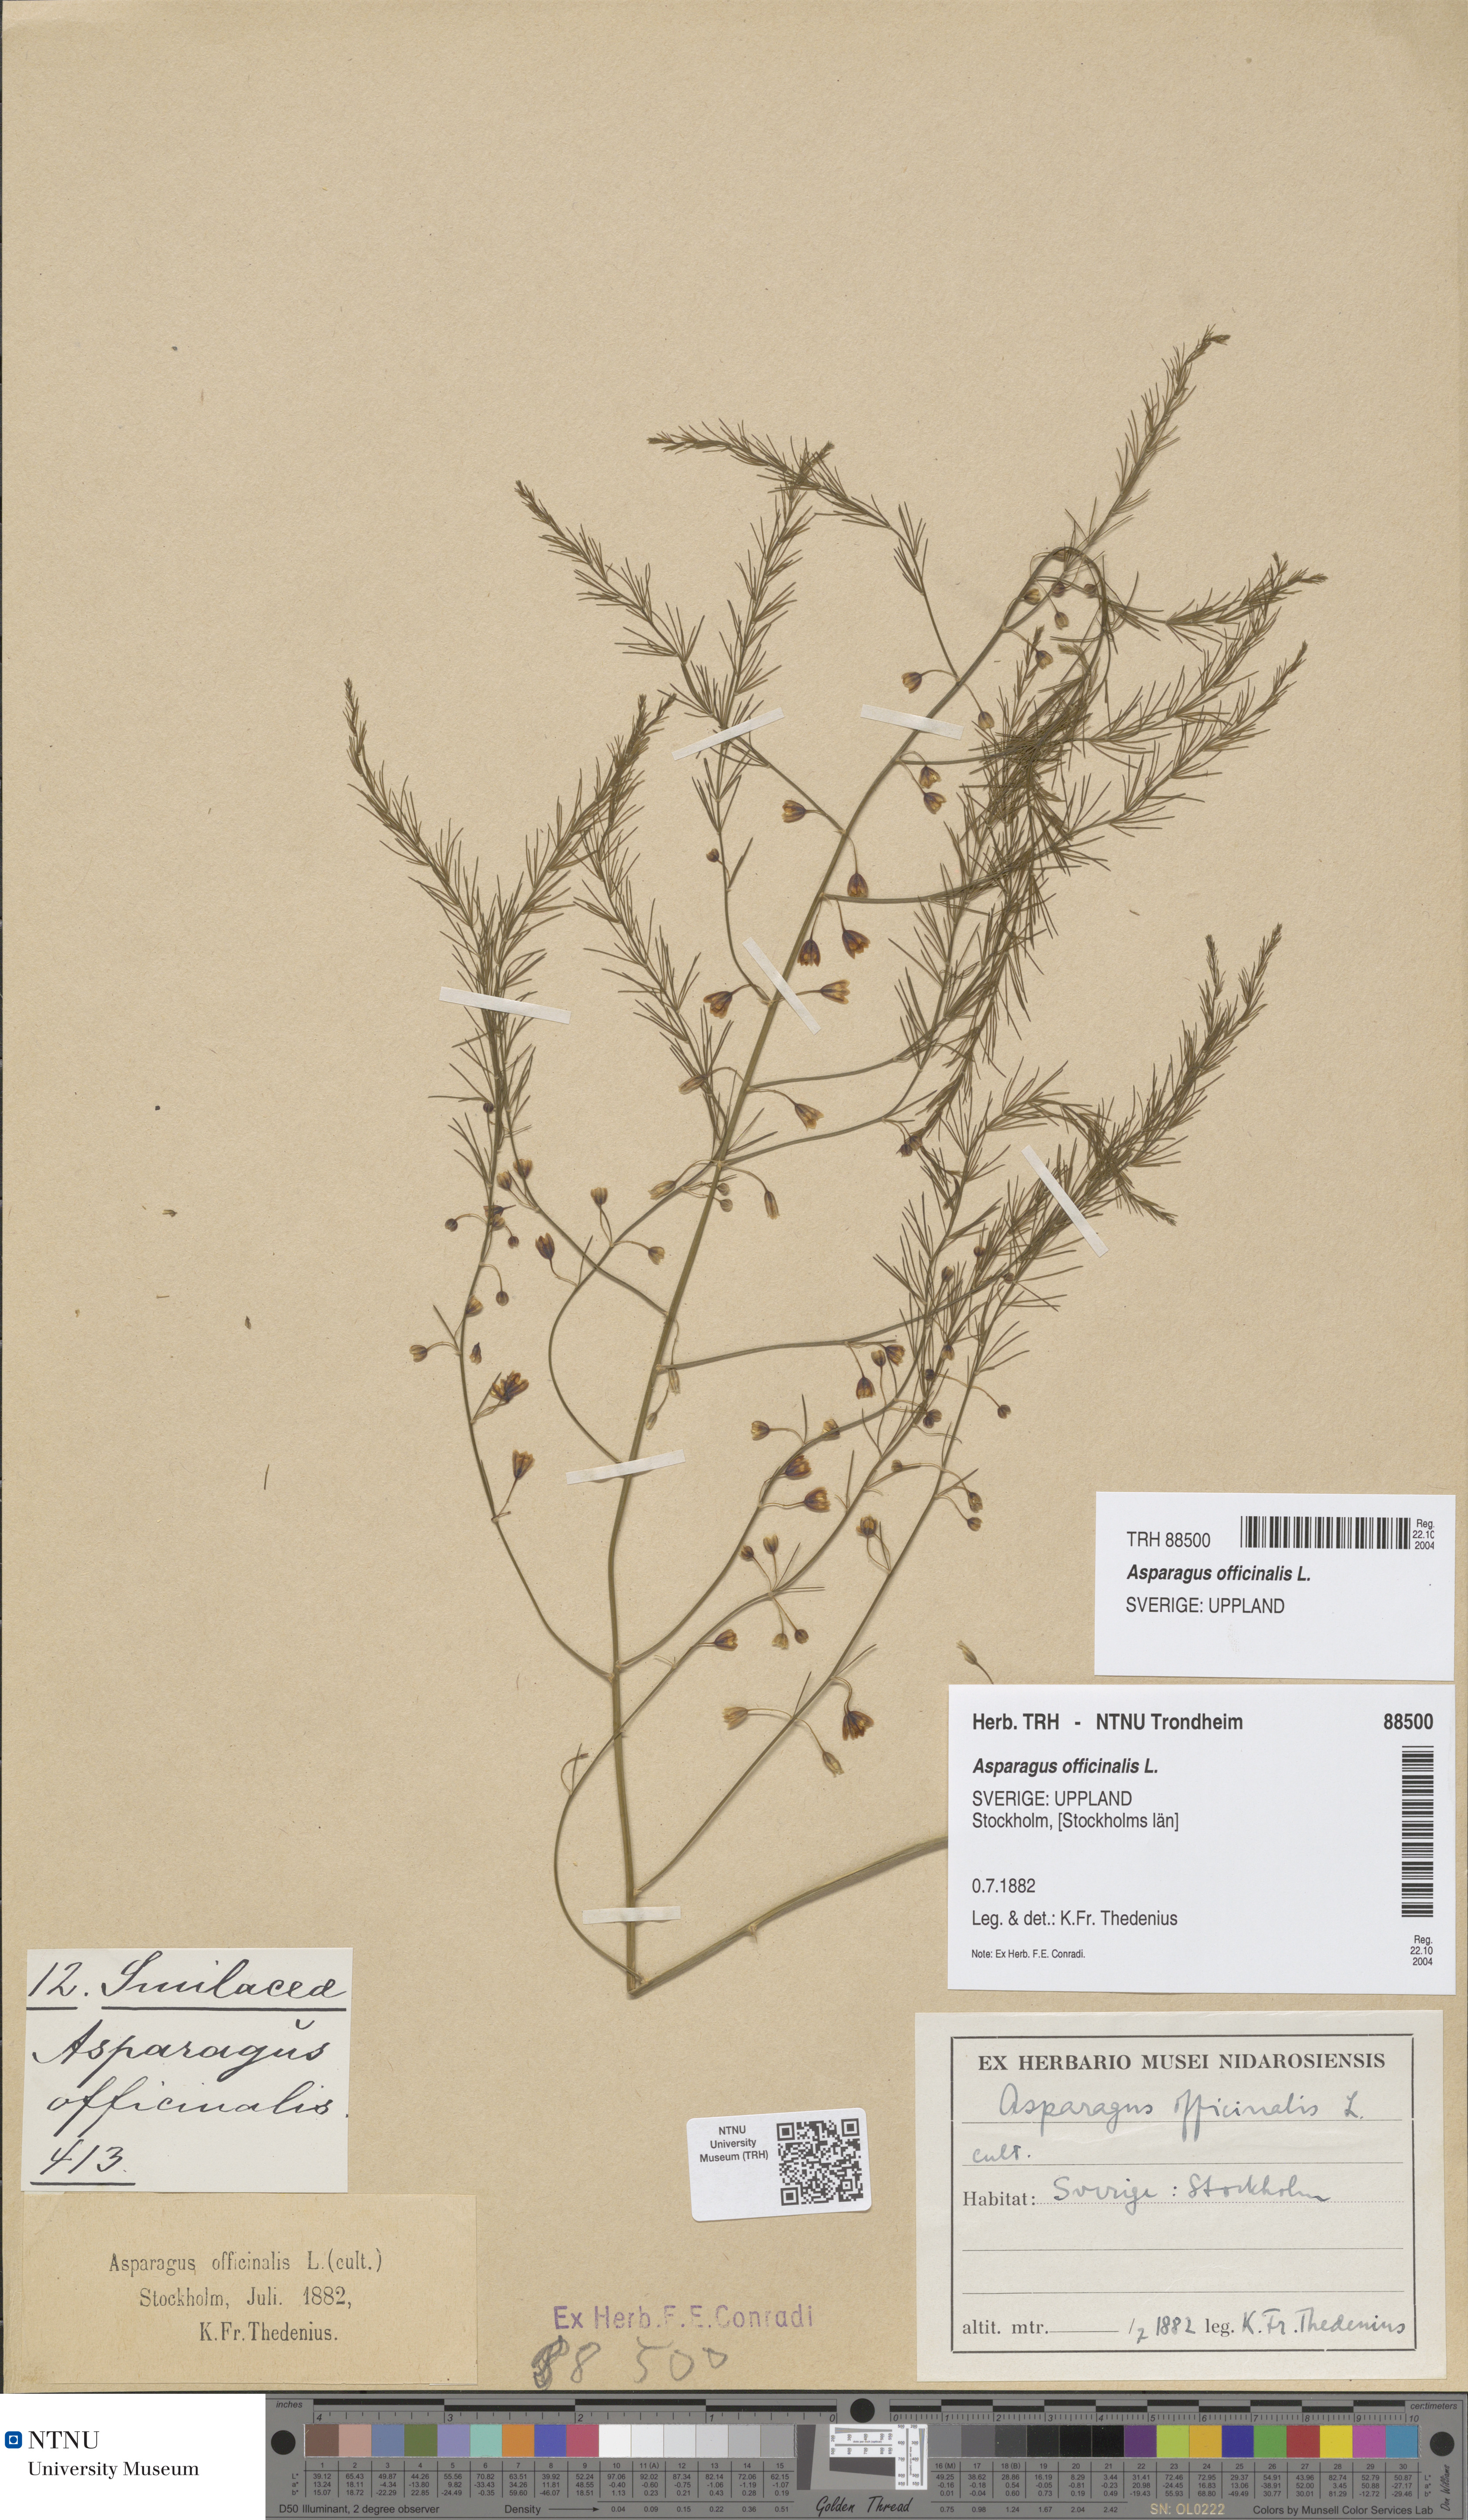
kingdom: Plantae
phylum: Tracheophyta
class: Liliopsida
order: Asparagales
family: Asparagaceae
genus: Asparagus
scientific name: Asparagus officinalis
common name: Garden asparagus
